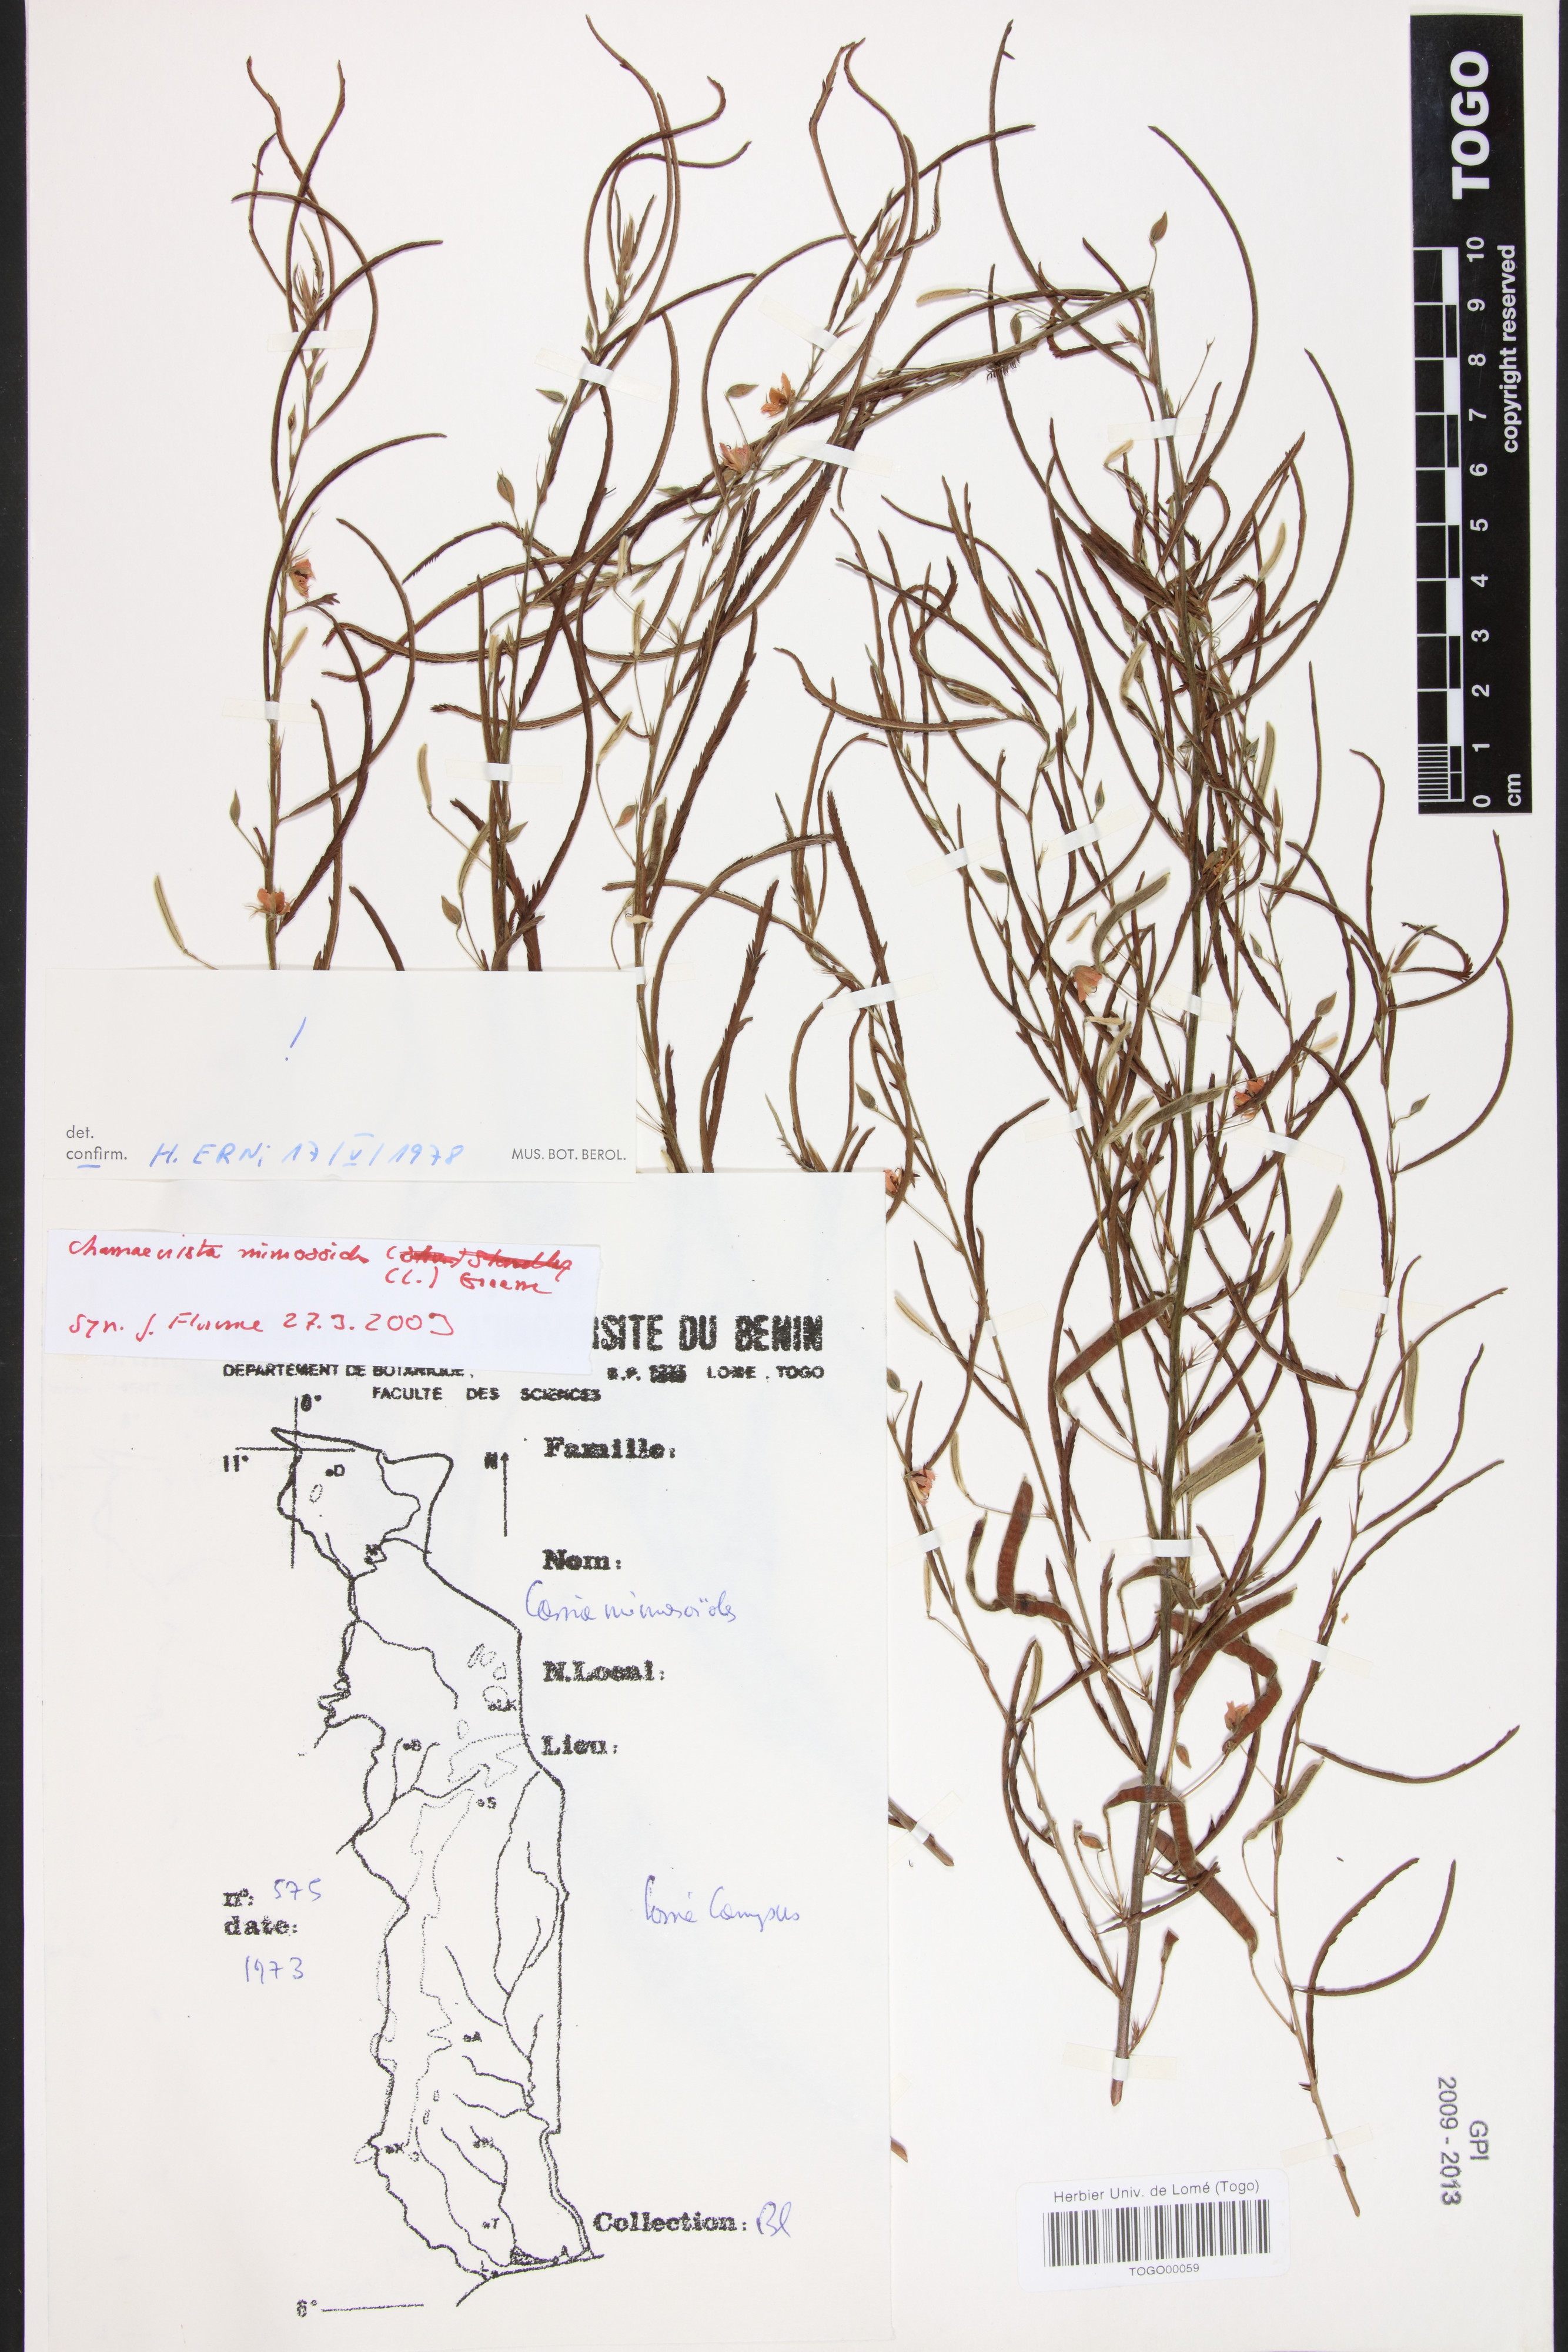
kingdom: Plantae
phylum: Tracheophyta
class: Magnoliopsida
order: Fabales
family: Fabaceae
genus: Chamaecrista
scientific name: Chamaecrista mimosoides
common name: Fish-bone cassia
